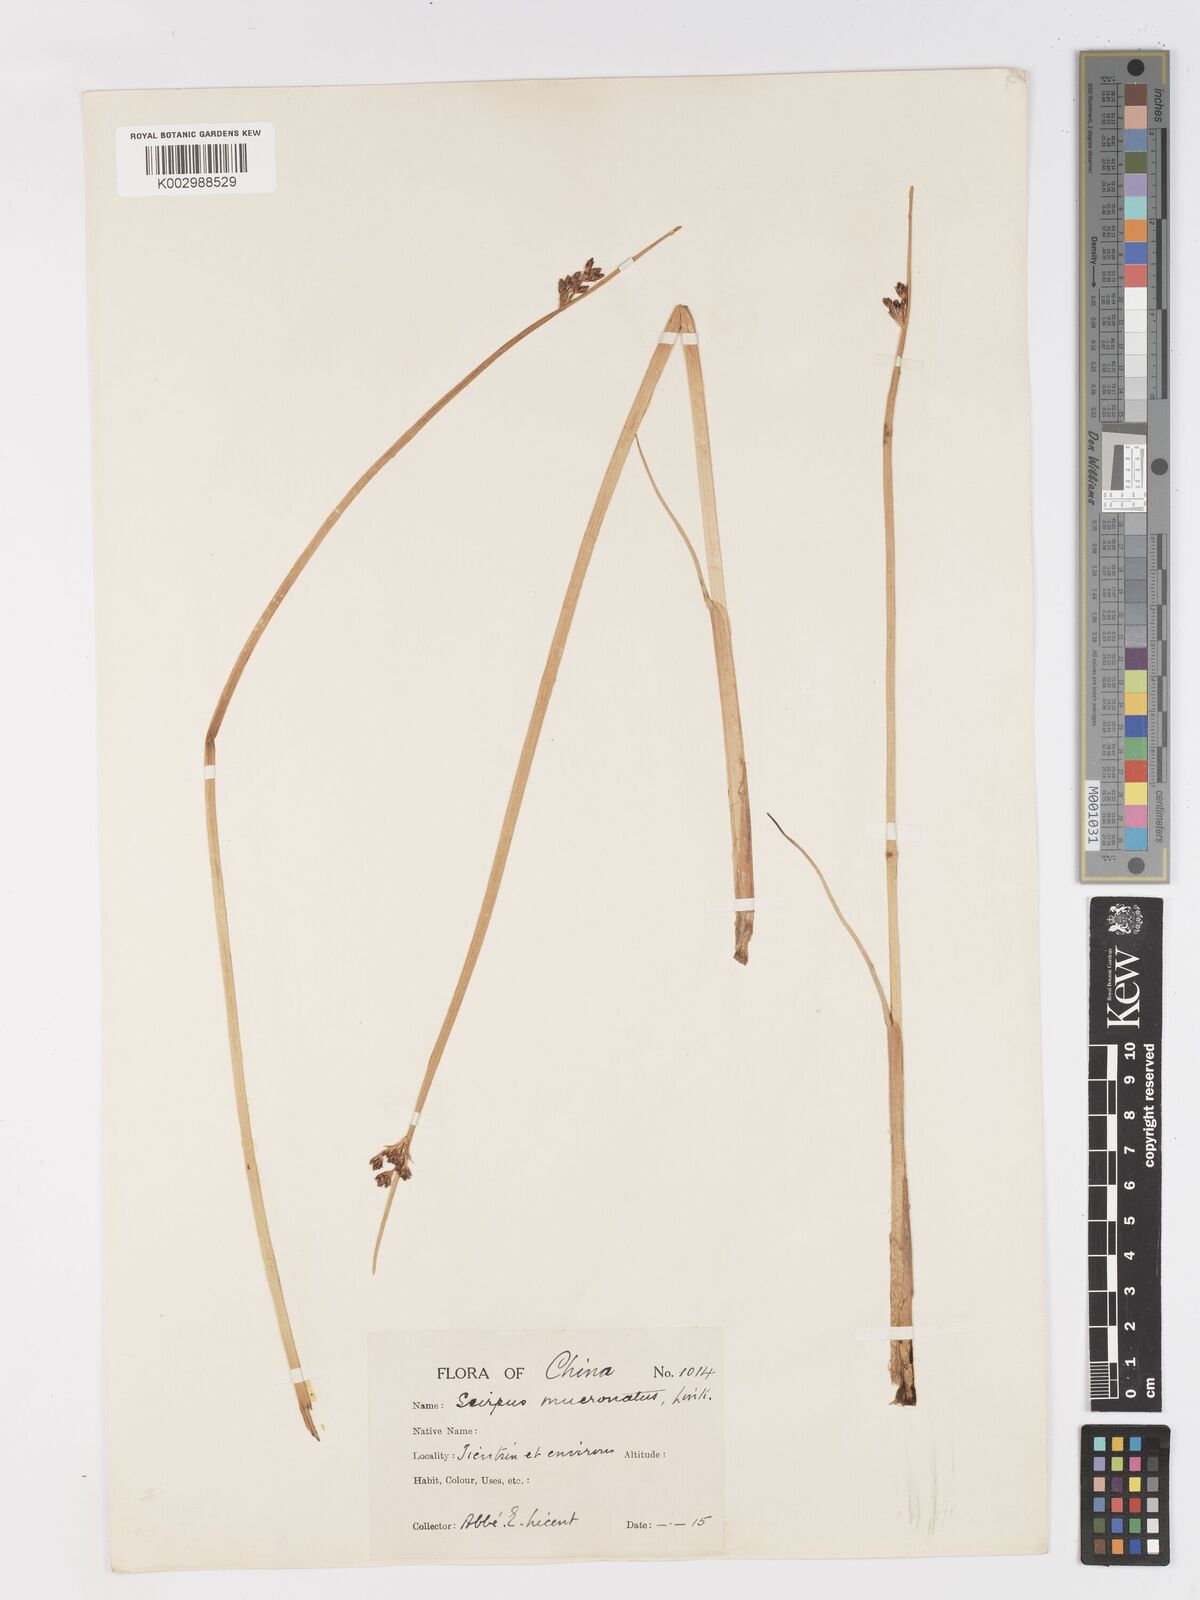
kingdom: Plantae
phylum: Tracheophyta
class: Liliopsida
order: Poales
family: Cyperaceae
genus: Schoenoplectus
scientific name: Schoenoplectus triqueter
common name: Triangular club-rush
